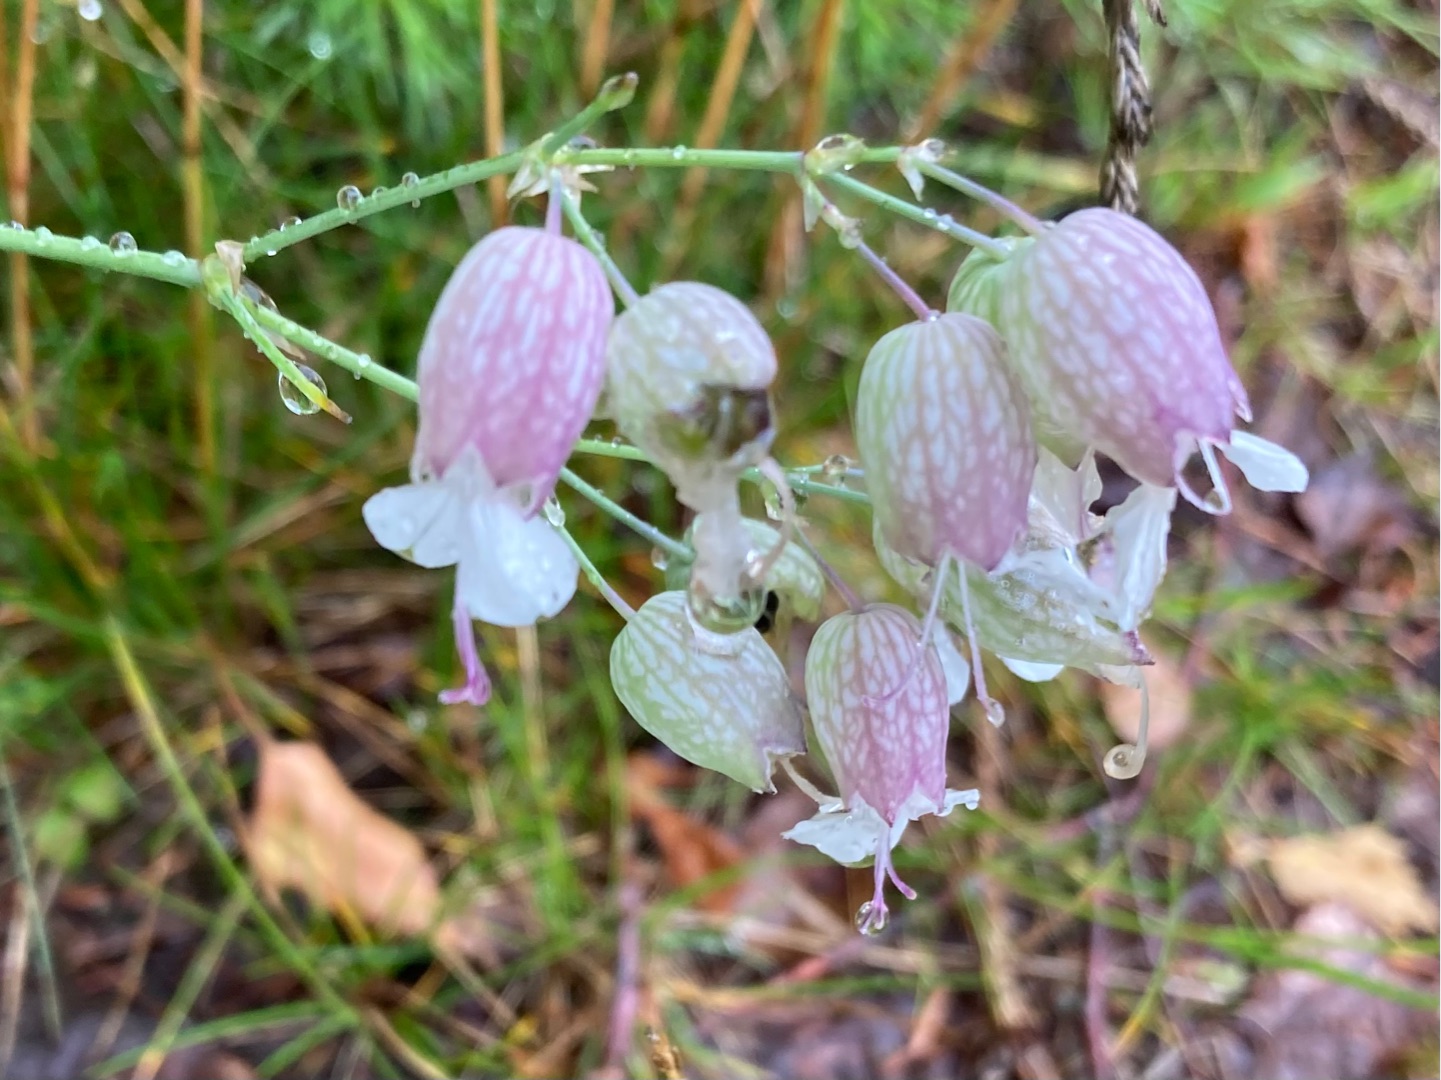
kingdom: Plantae
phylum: Tracheophyta
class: Magnoliopsida
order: Caryophyllales
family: Caryophyllaceae
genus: Silene
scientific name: Silene vulgaris
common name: Blæresmælde
